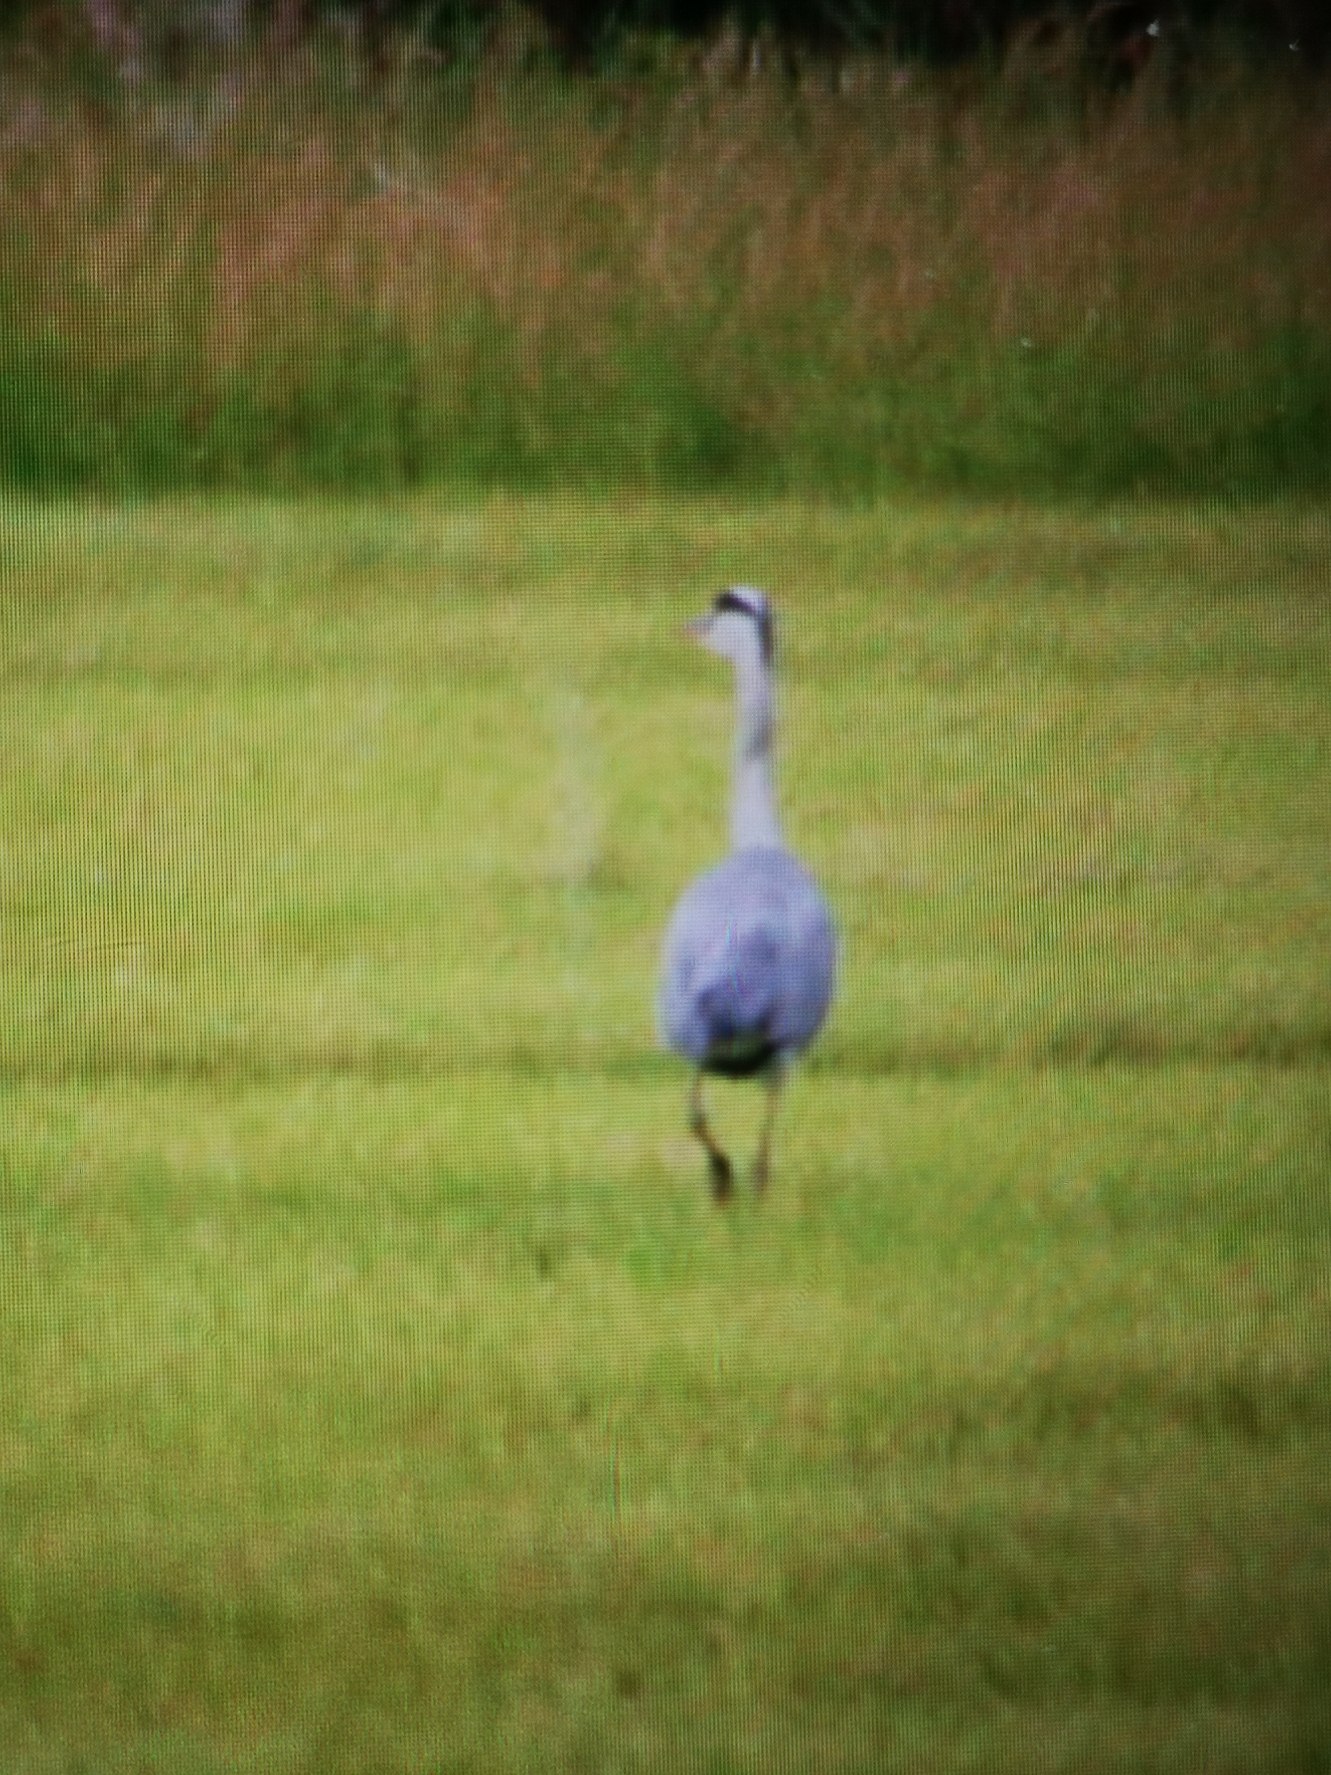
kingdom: Animalia
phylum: Chordata
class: Aves
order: Pelecaniformes
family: Ardeidae
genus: Ardea
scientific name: Ardea cinerea
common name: Fiskehejre
